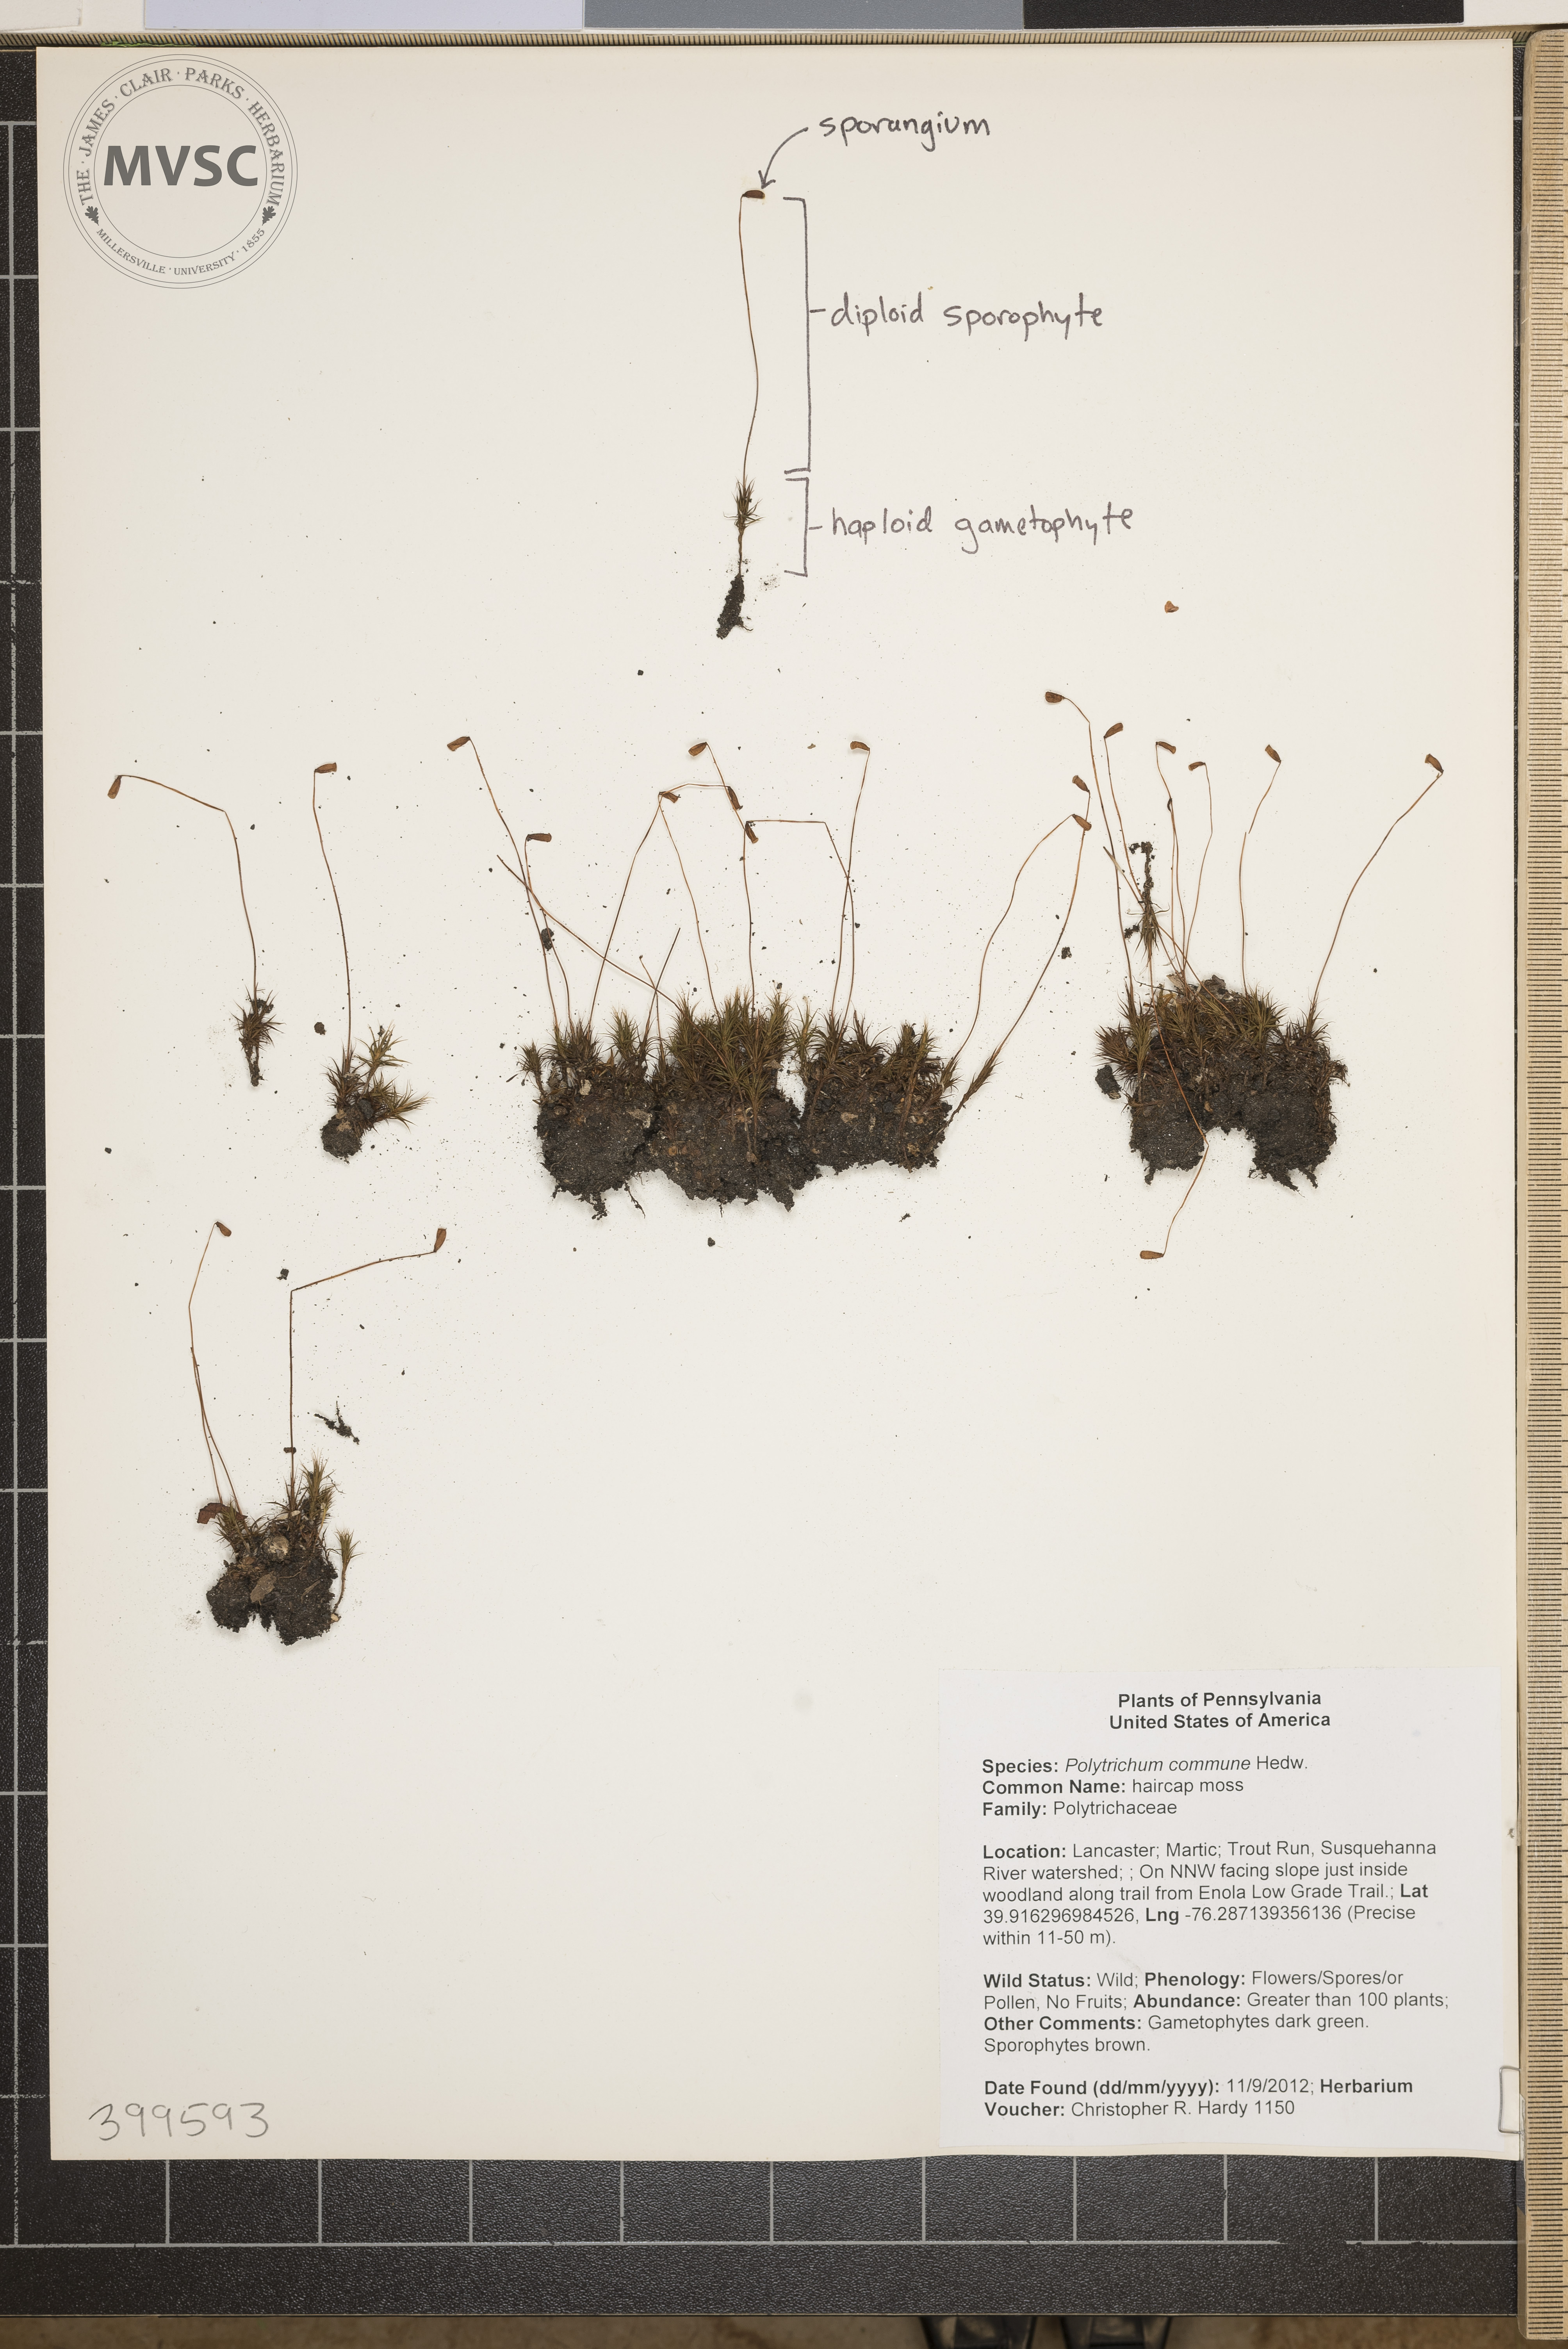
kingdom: Plantae
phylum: Bryophyta
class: Polytrichopsida
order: Polytrichales
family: Polytrichaceae
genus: Polytrichum
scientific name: Polytrichum commune
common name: haircap moss
